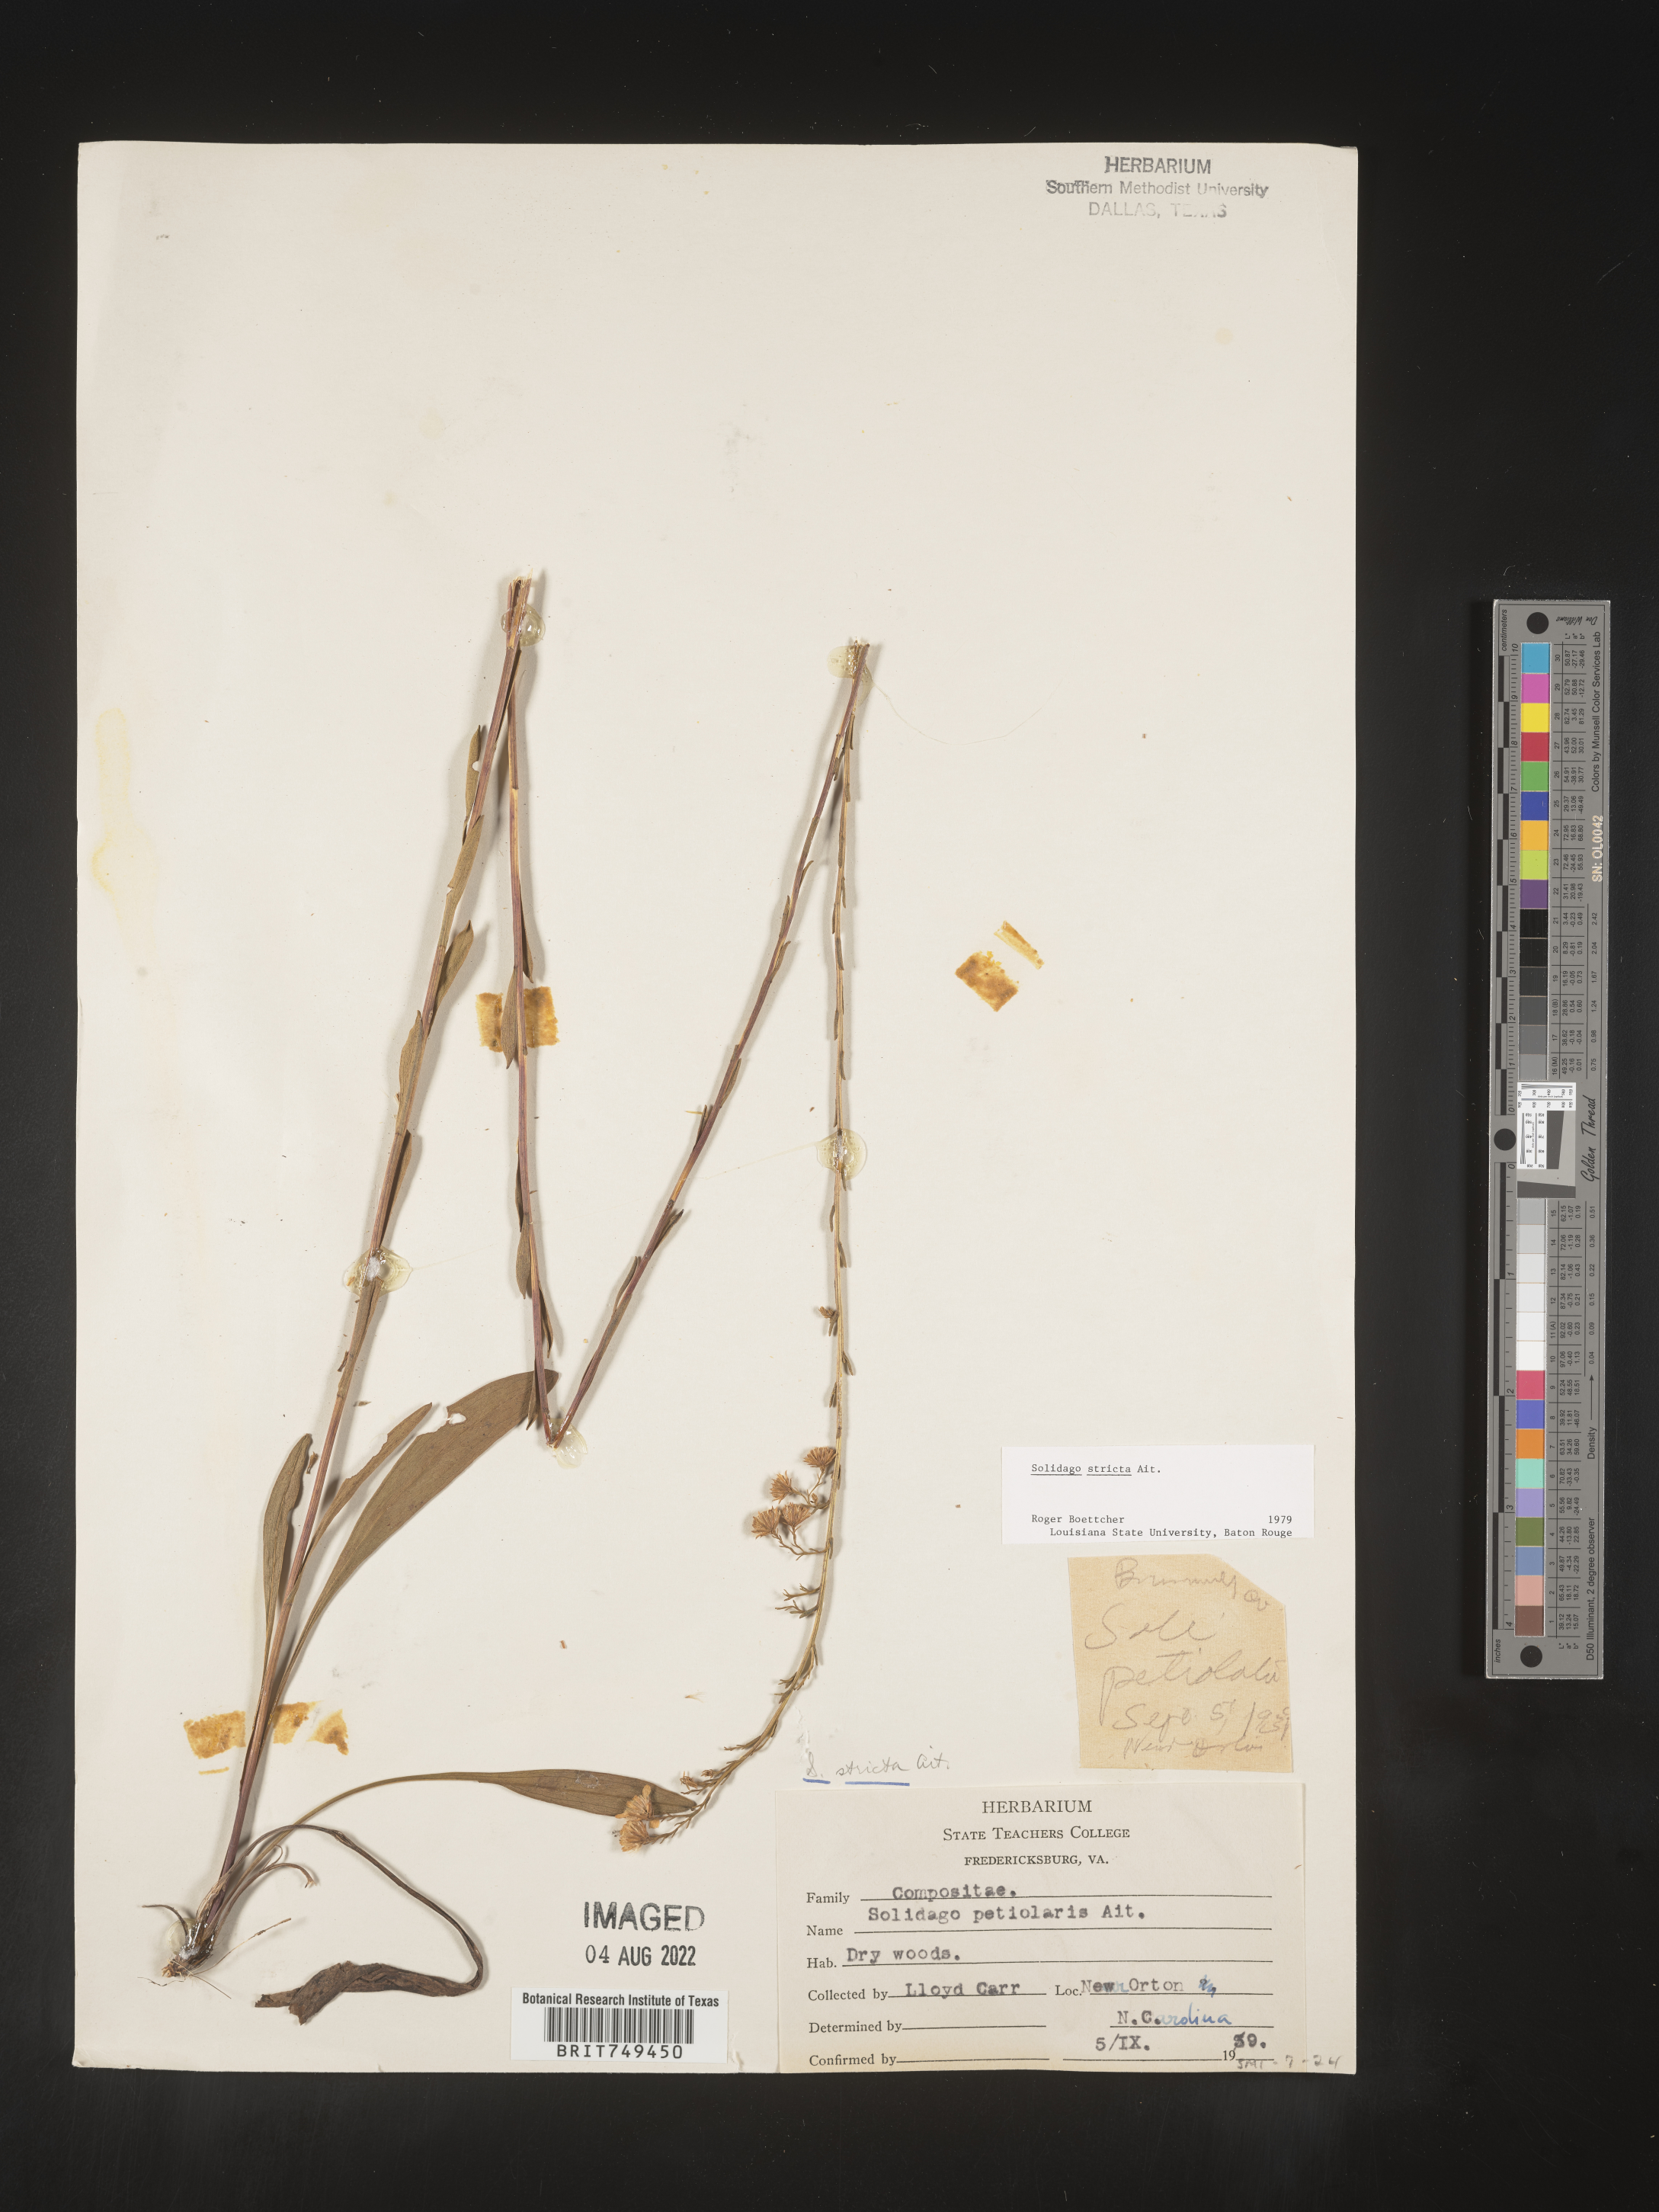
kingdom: Plantae
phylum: Tracheophyta
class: Magnoliopsida
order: Asterales
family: Asteraceae
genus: Solidago
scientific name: Solidago stricta
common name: Pine barren bog goldenrod
